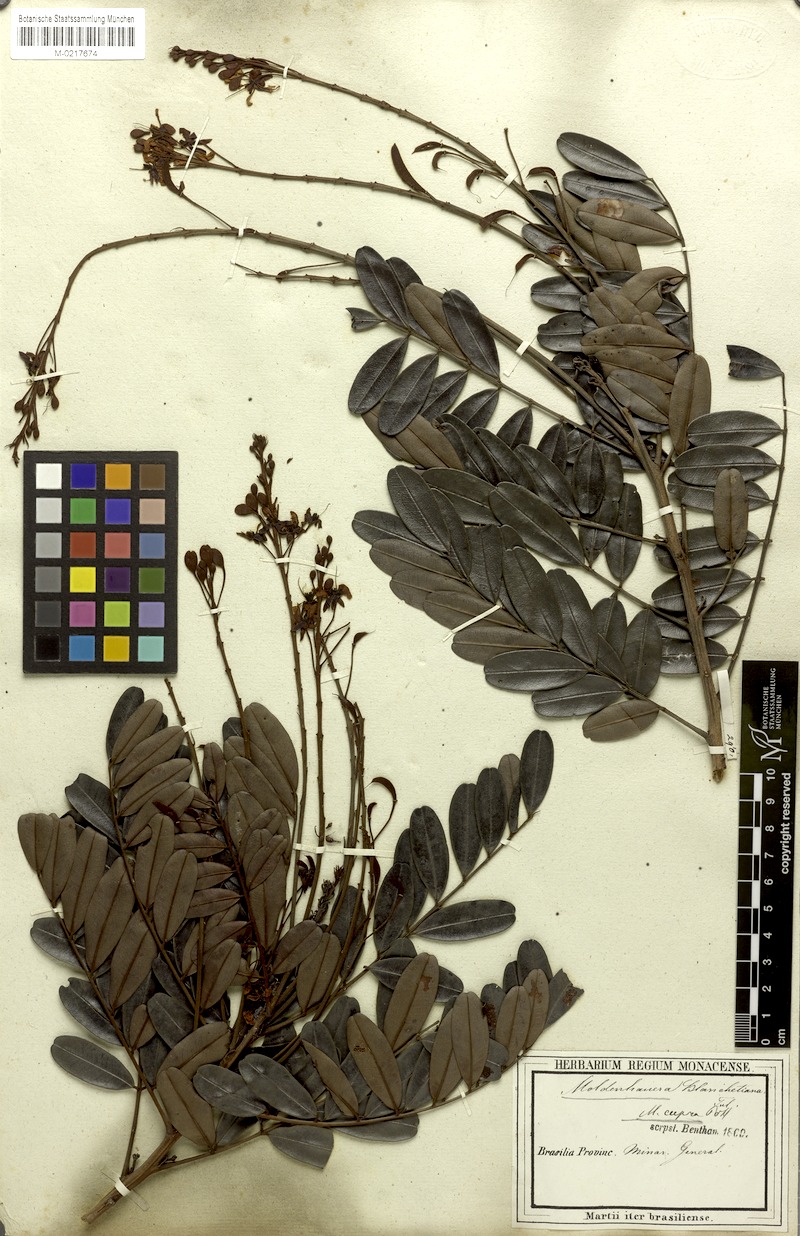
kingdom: Plantae
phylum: Tracheophyta
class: Magnoliopsida
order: Fabales
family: Fabaceae
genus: Moldenhawera
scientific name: Moldenhawera emarginata
